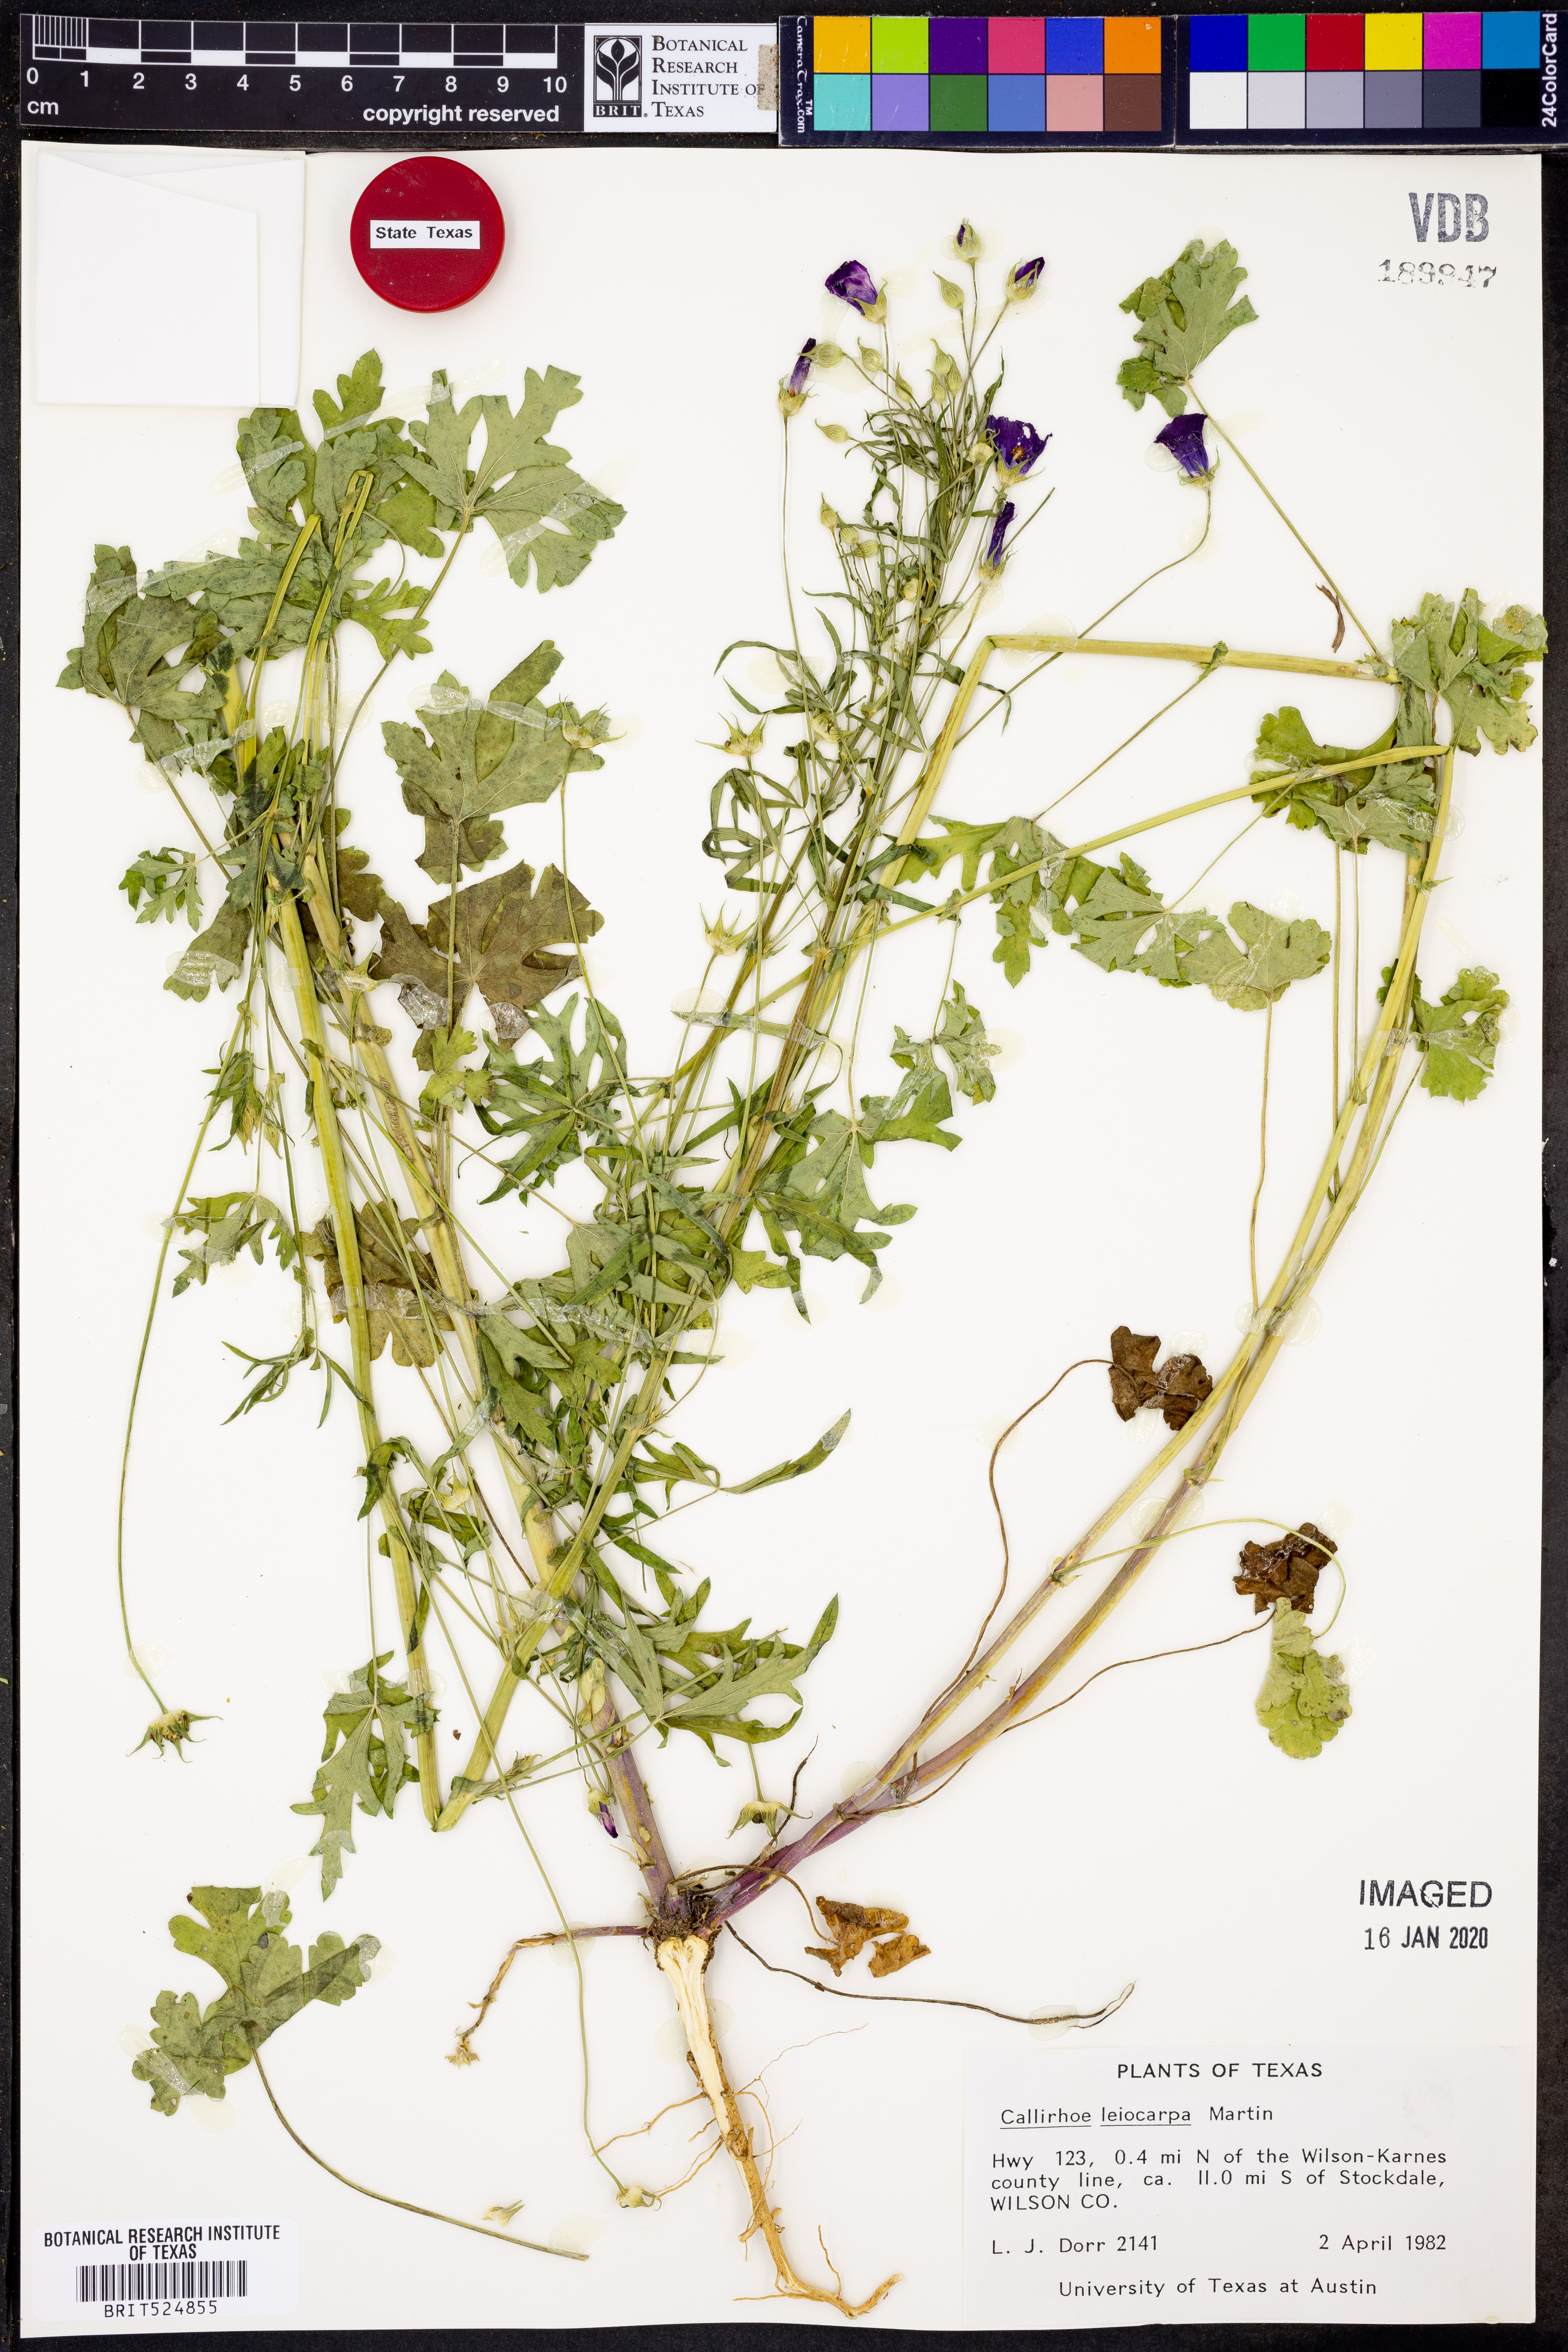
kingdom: Plantae
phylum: Tracheophyta
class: Magnoliopsida
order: Malvales
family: Malvaceae
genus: Callirhoe
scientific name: Callirhoe papaver
